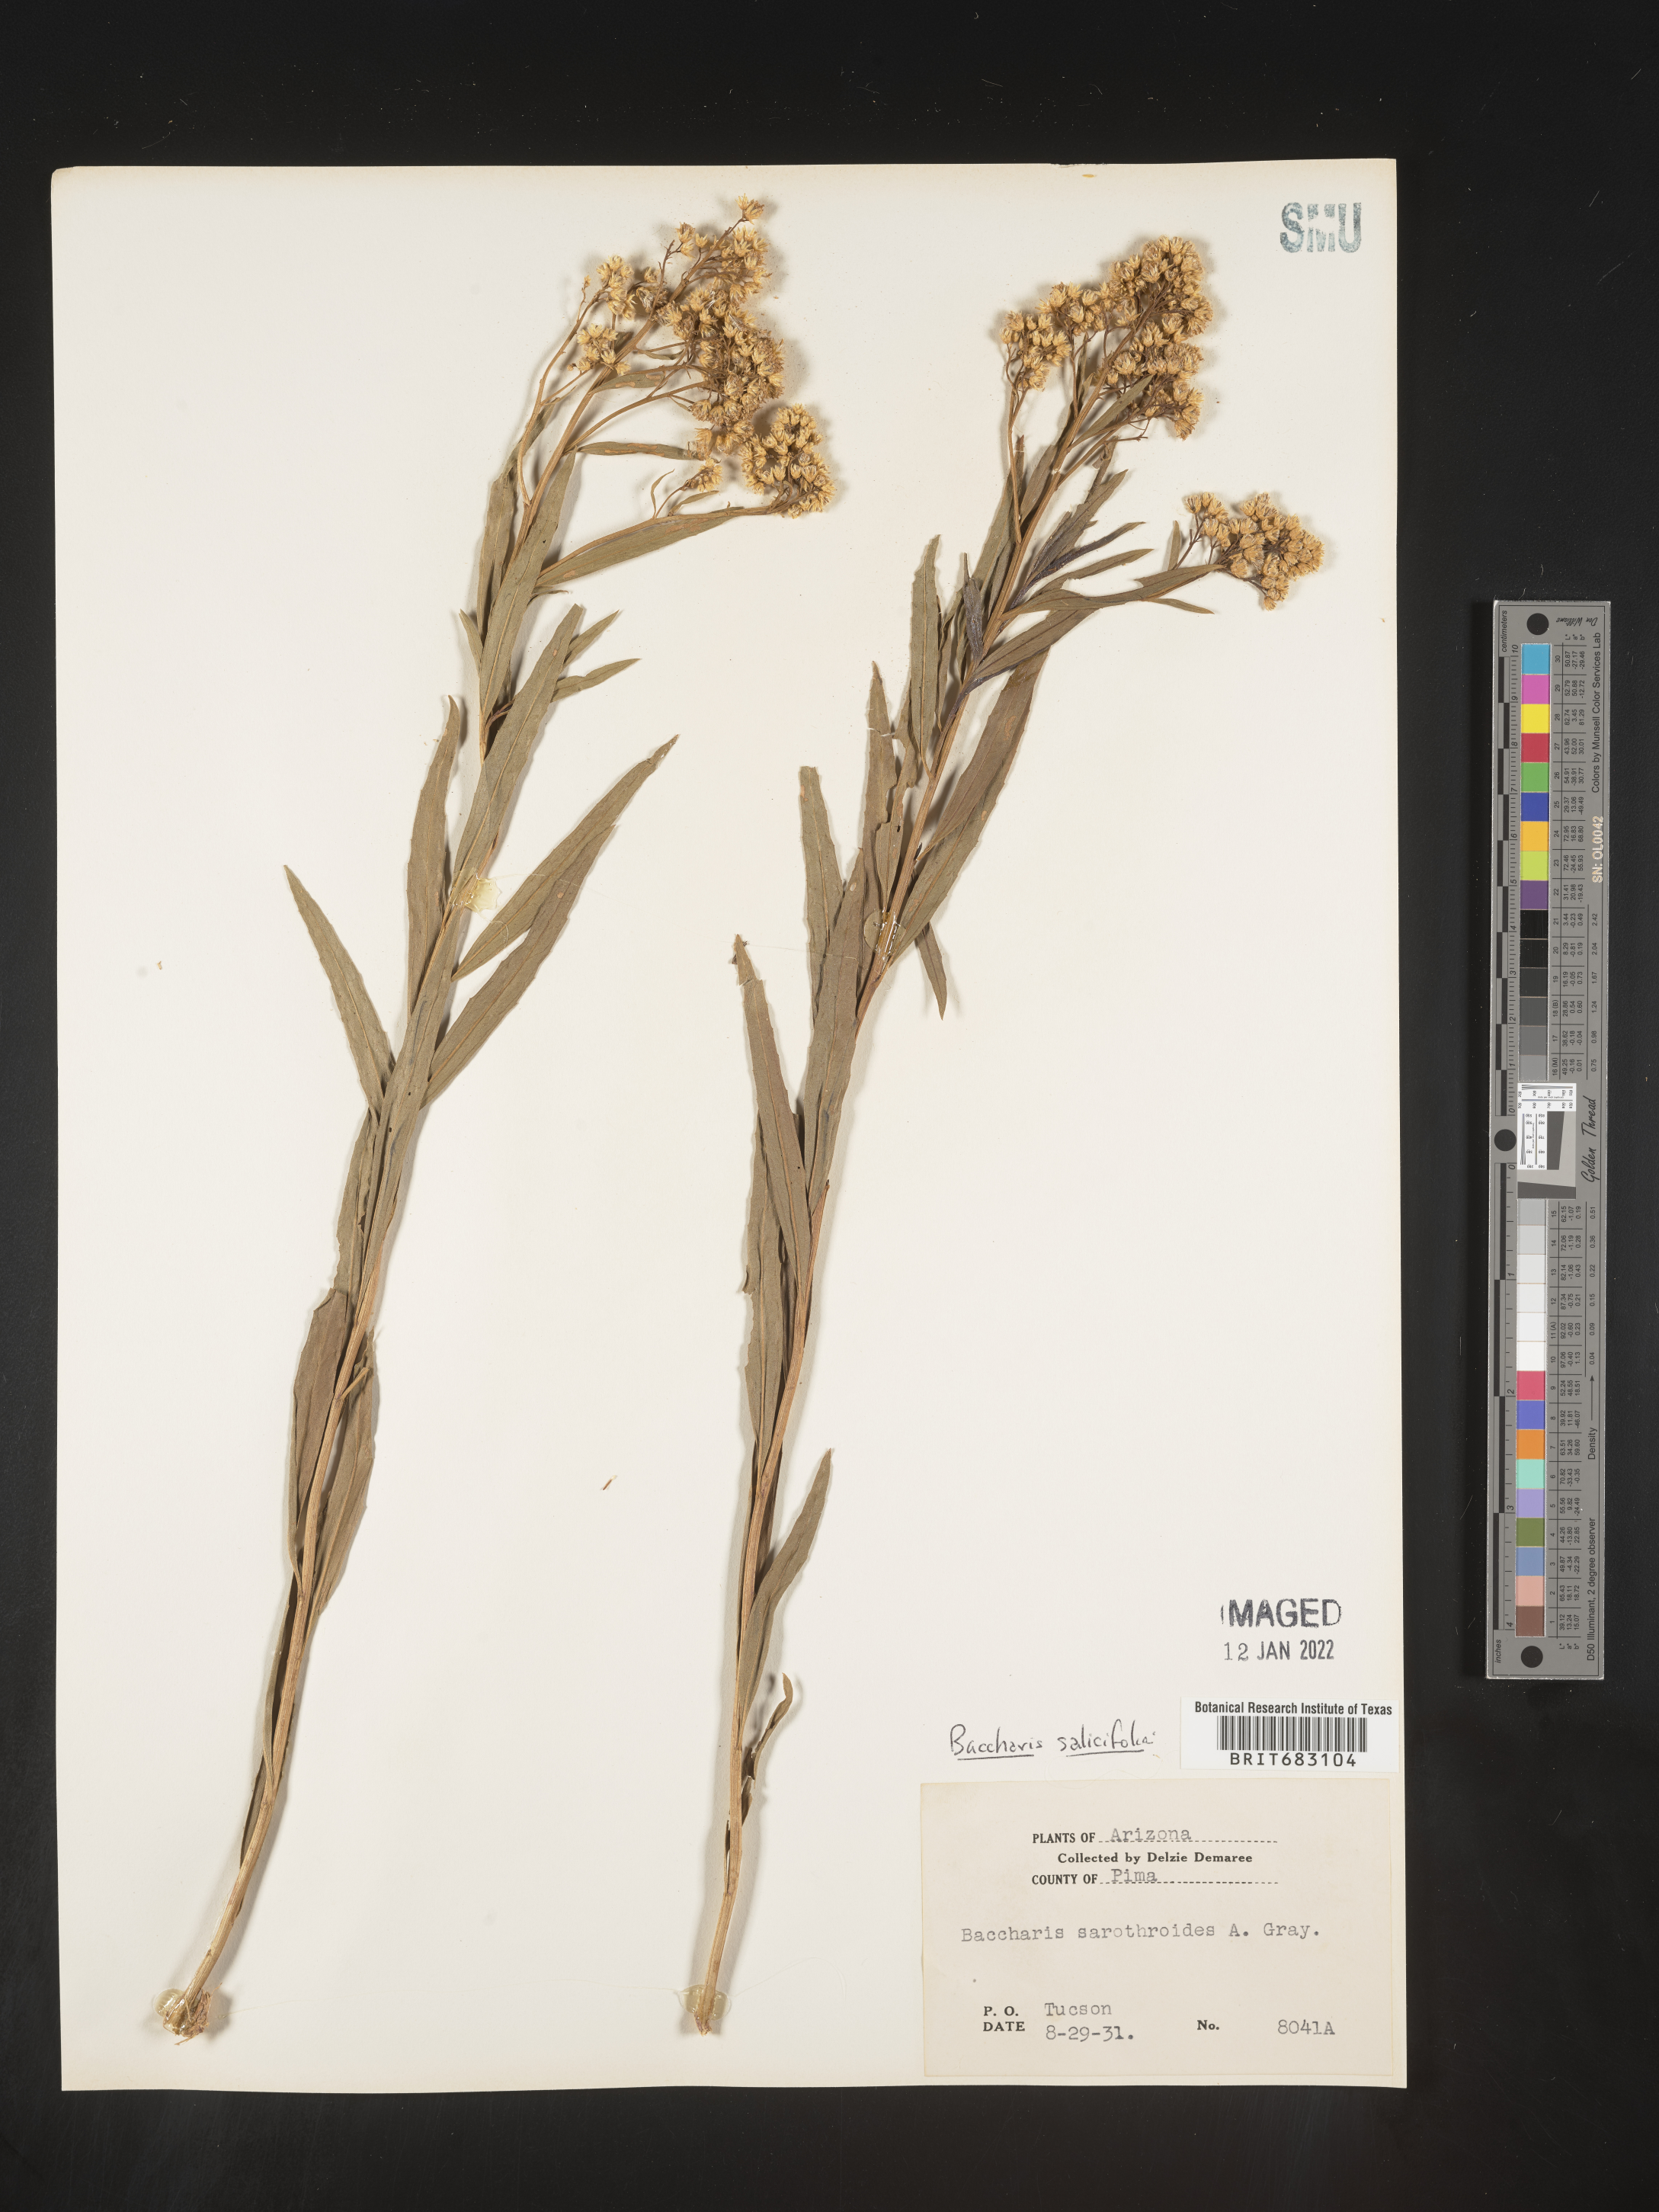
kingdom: Plantae
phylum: Tracheophyta
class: Magnoliopsida
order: Asterales
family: Asteraceae
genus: Baccharis
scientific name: Baccharis salicifolia
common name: Sticky baccharis
